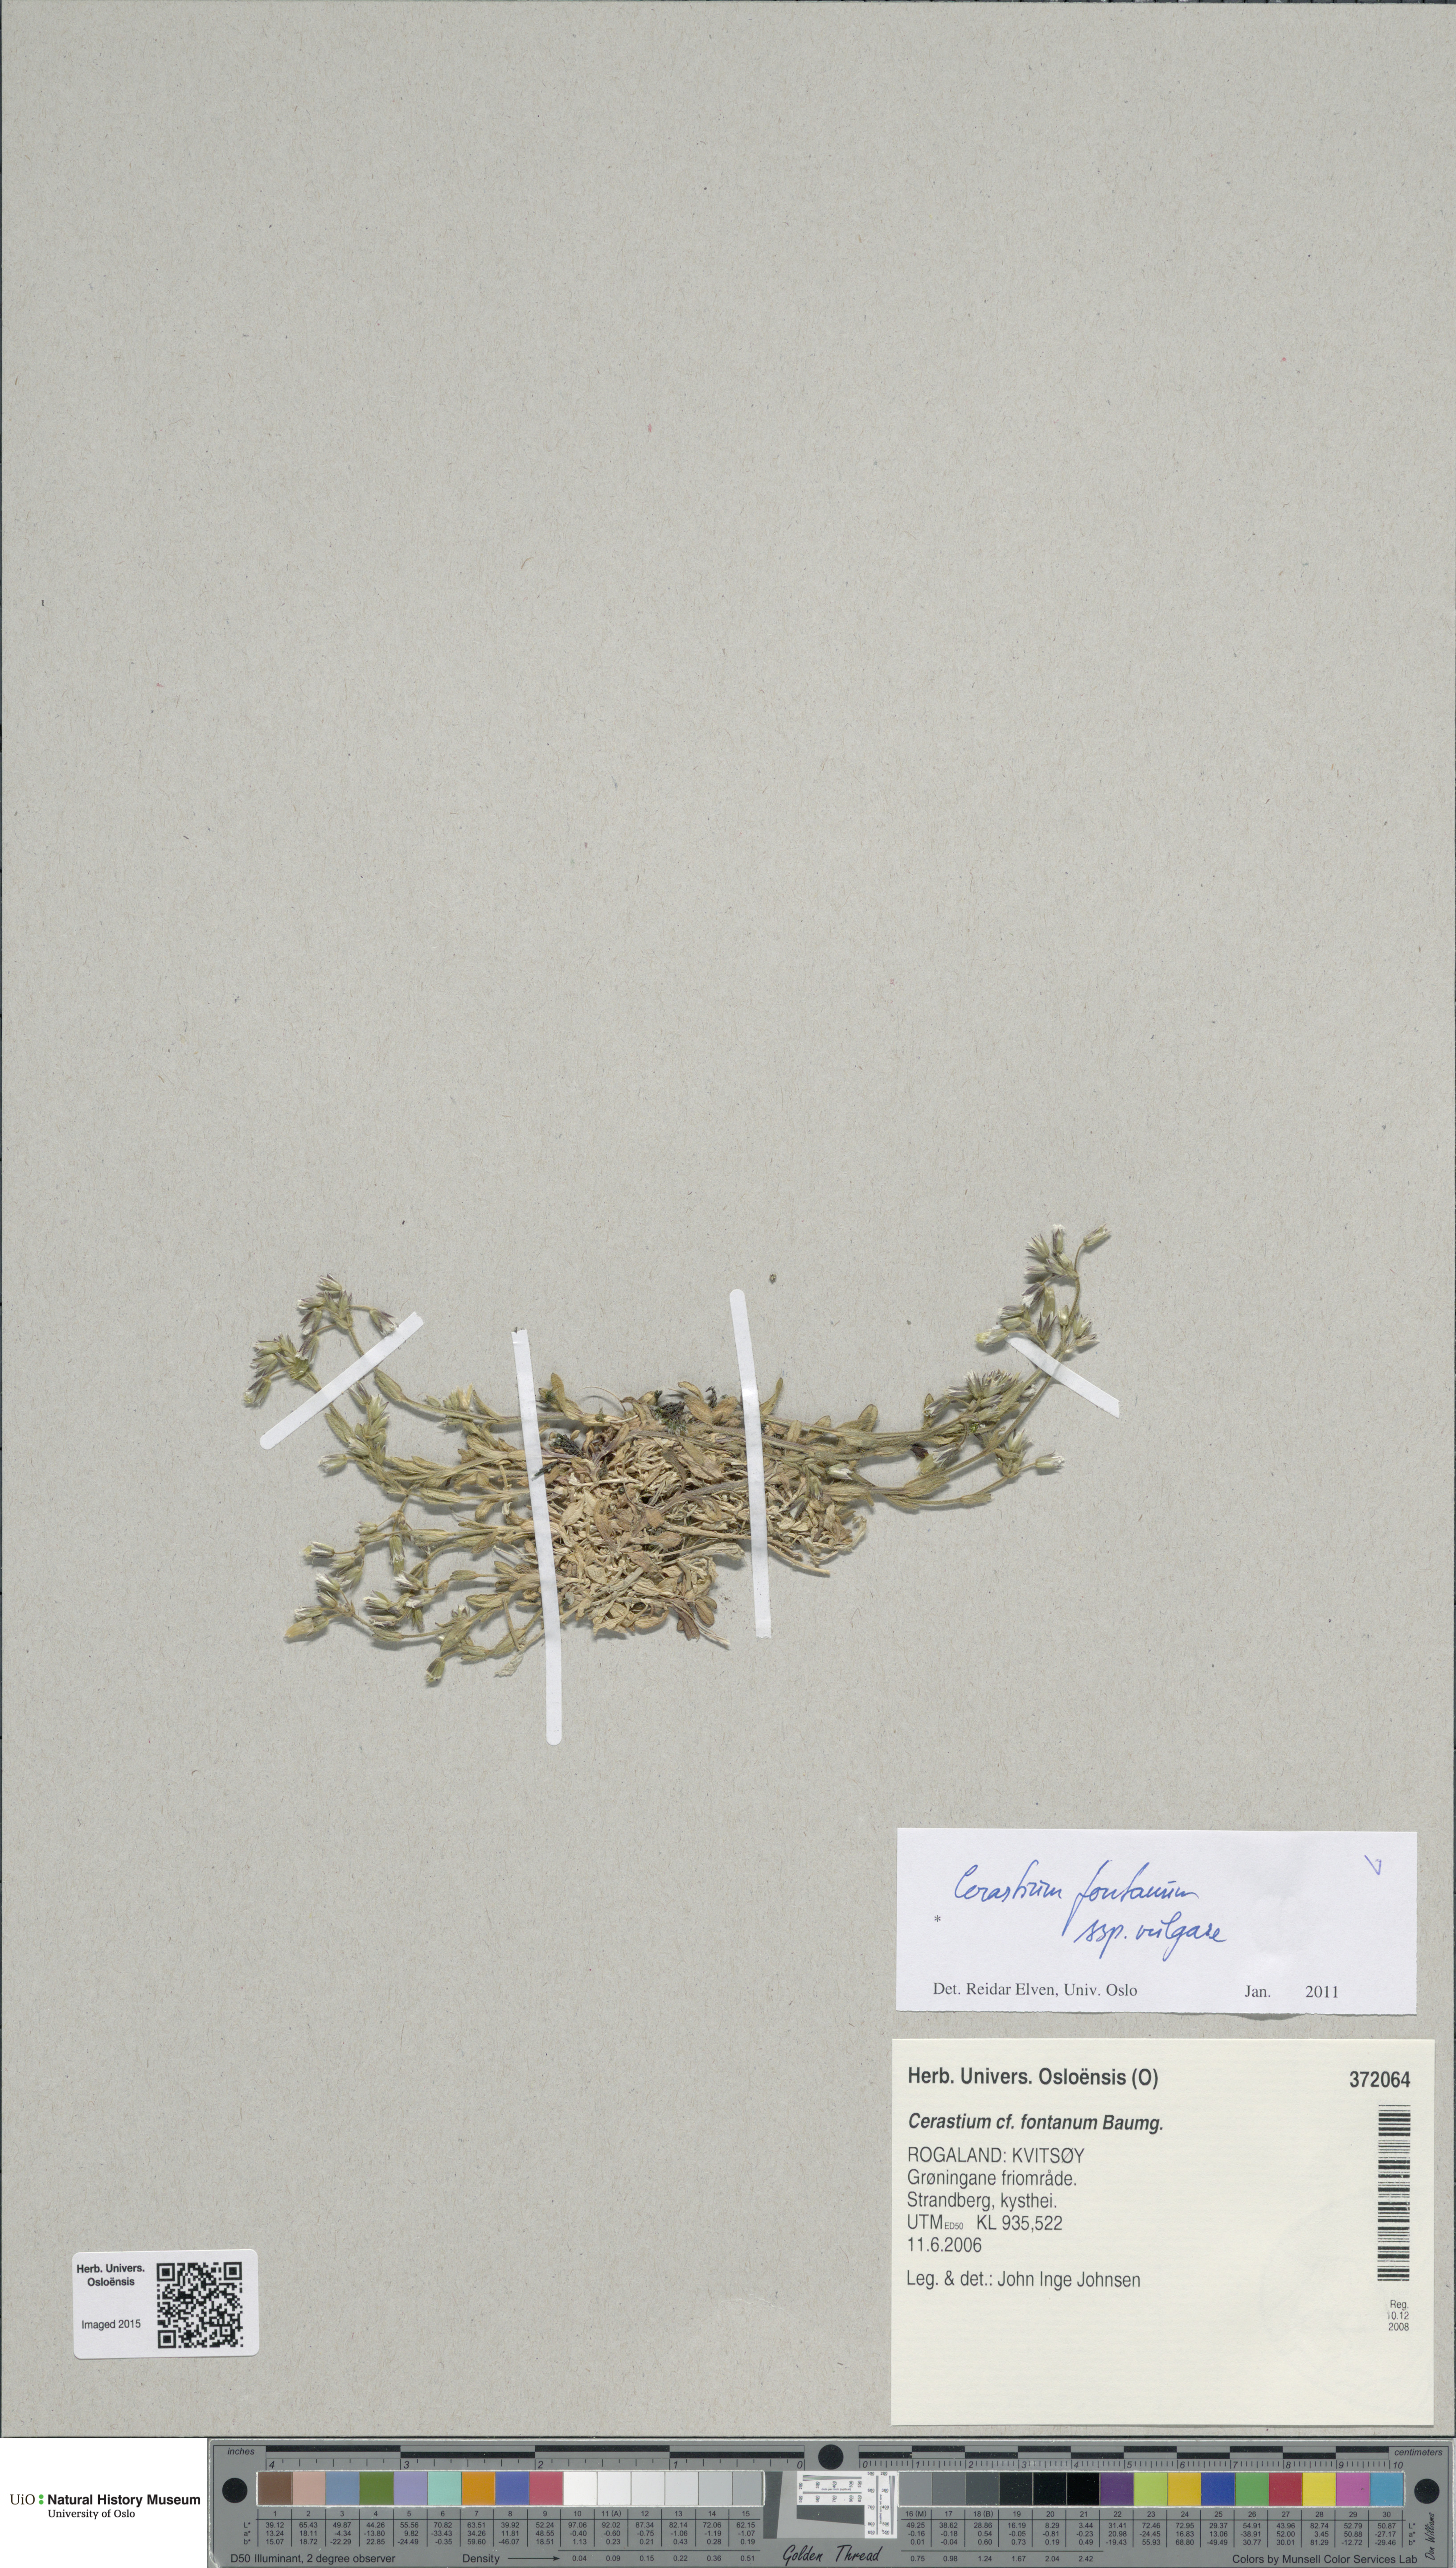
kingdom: Plantae
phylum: Tracheophyta
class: Magnoliopsida
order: Caryophyllales
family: Caryophyllaceae
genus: Cerastium
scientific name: Cerastium holosteoides
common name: Big chickweed
